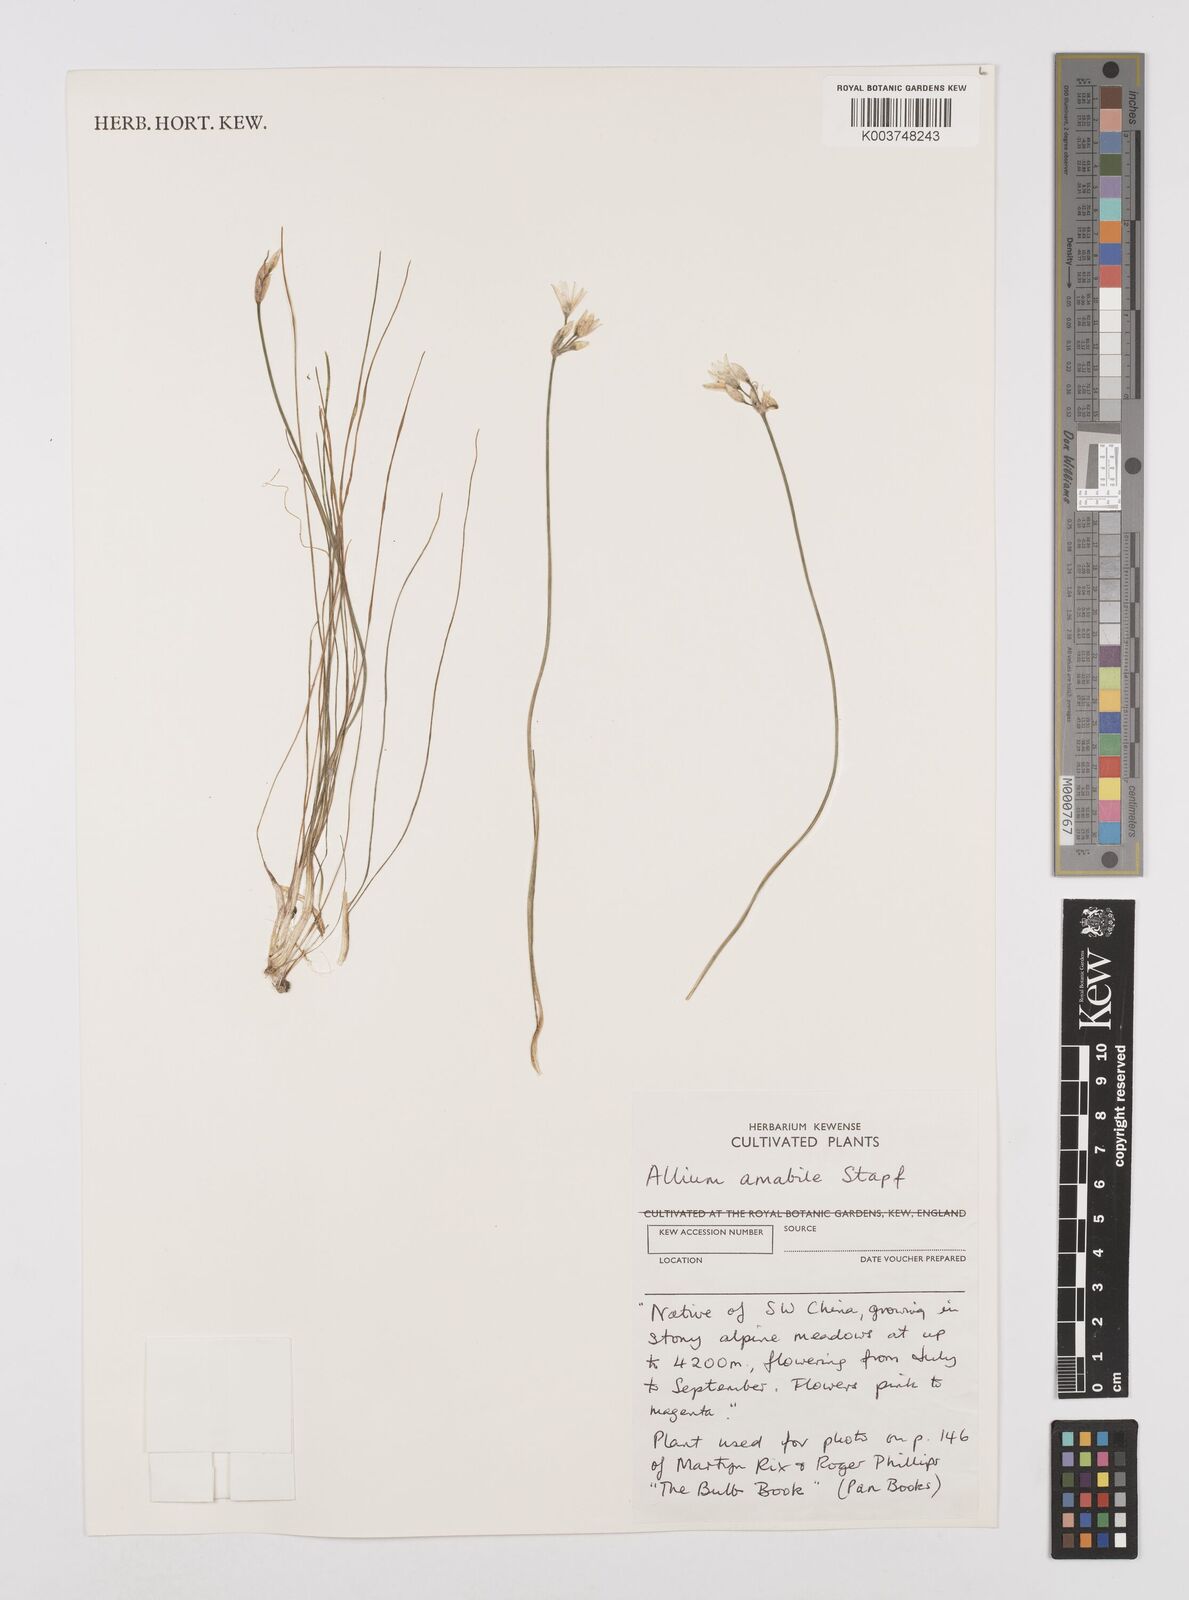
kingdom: Plantae
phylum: Tracheophyta
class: Liliopsida
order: Asparagales
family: Amaryllidaceae
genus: Allium
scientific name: Allium mairei
